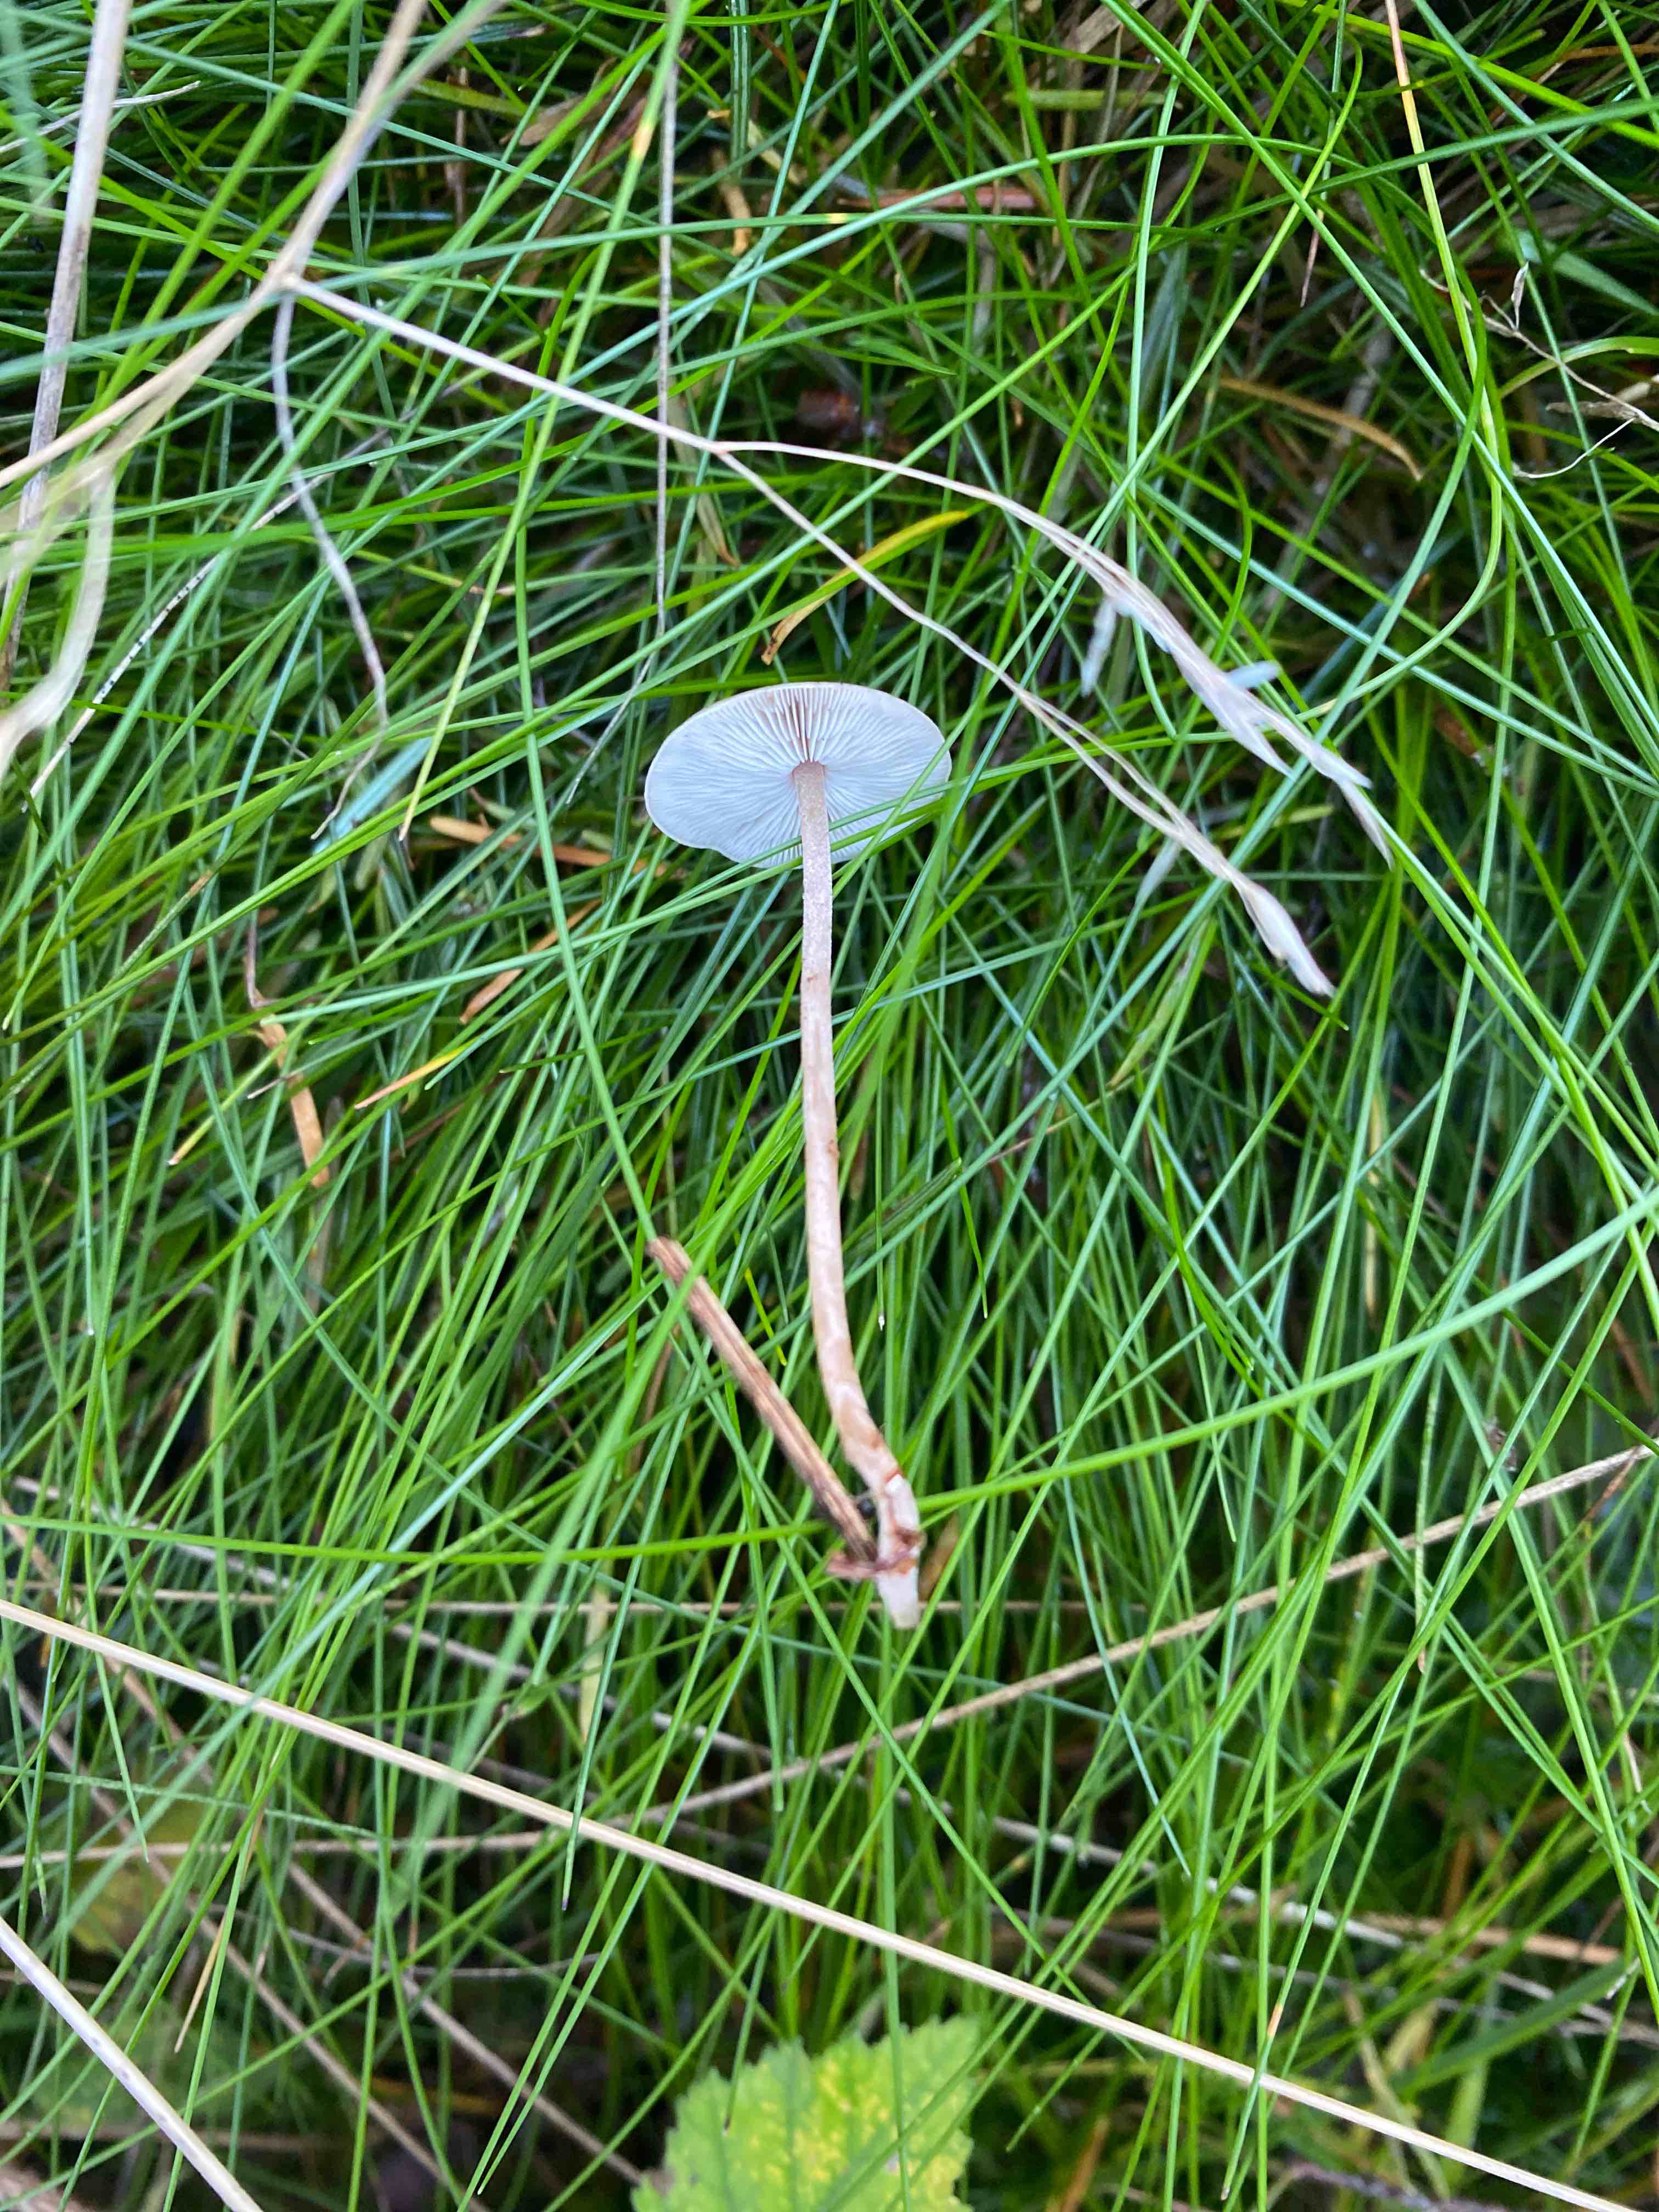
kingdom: Fungi
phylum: Basidiomycota
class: Agaricomycetes
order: Agaricales
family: Omphalotaceae
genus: Collybiopsis
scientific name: Collybiopsis confluens
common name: knippe-fladhat
